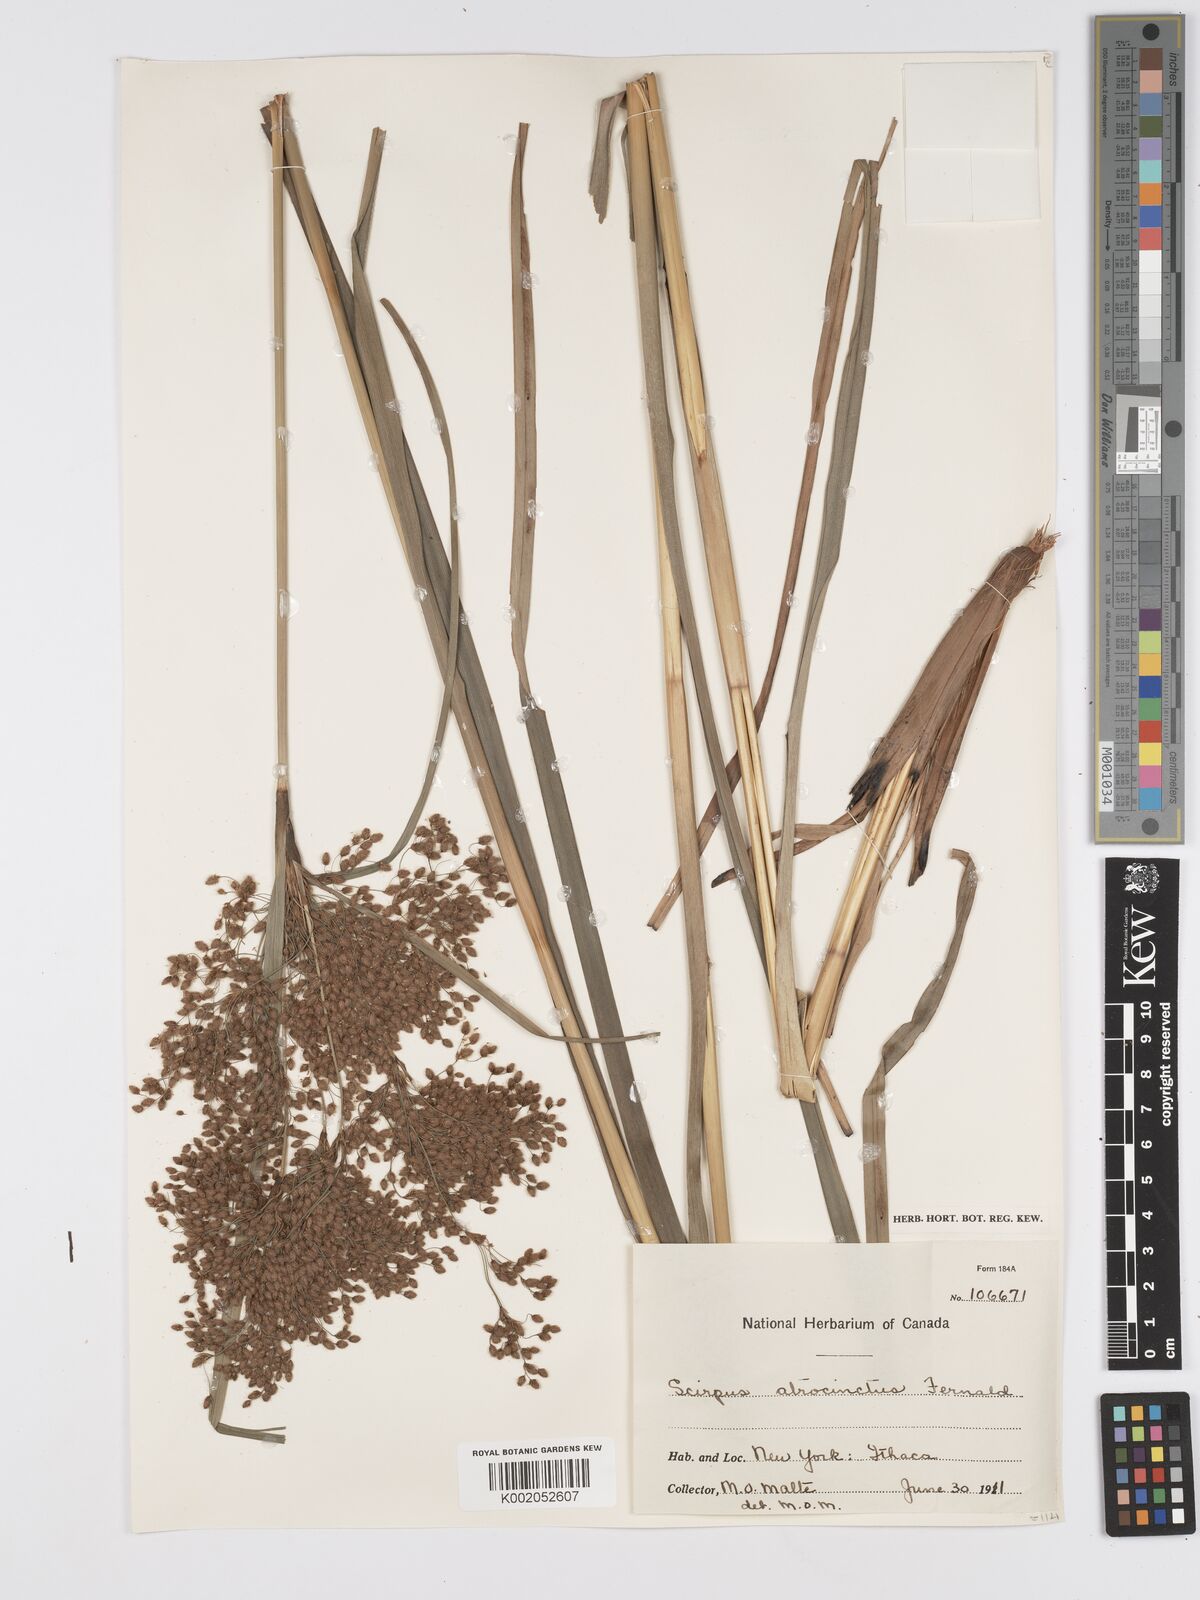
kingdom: Plantae
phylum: Tracheophyta
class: Liliopsida
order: Poales
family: Cyperaceae
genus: Scirpus
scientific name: Scirpus atrocinctus
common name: Black-girdled bulrush
